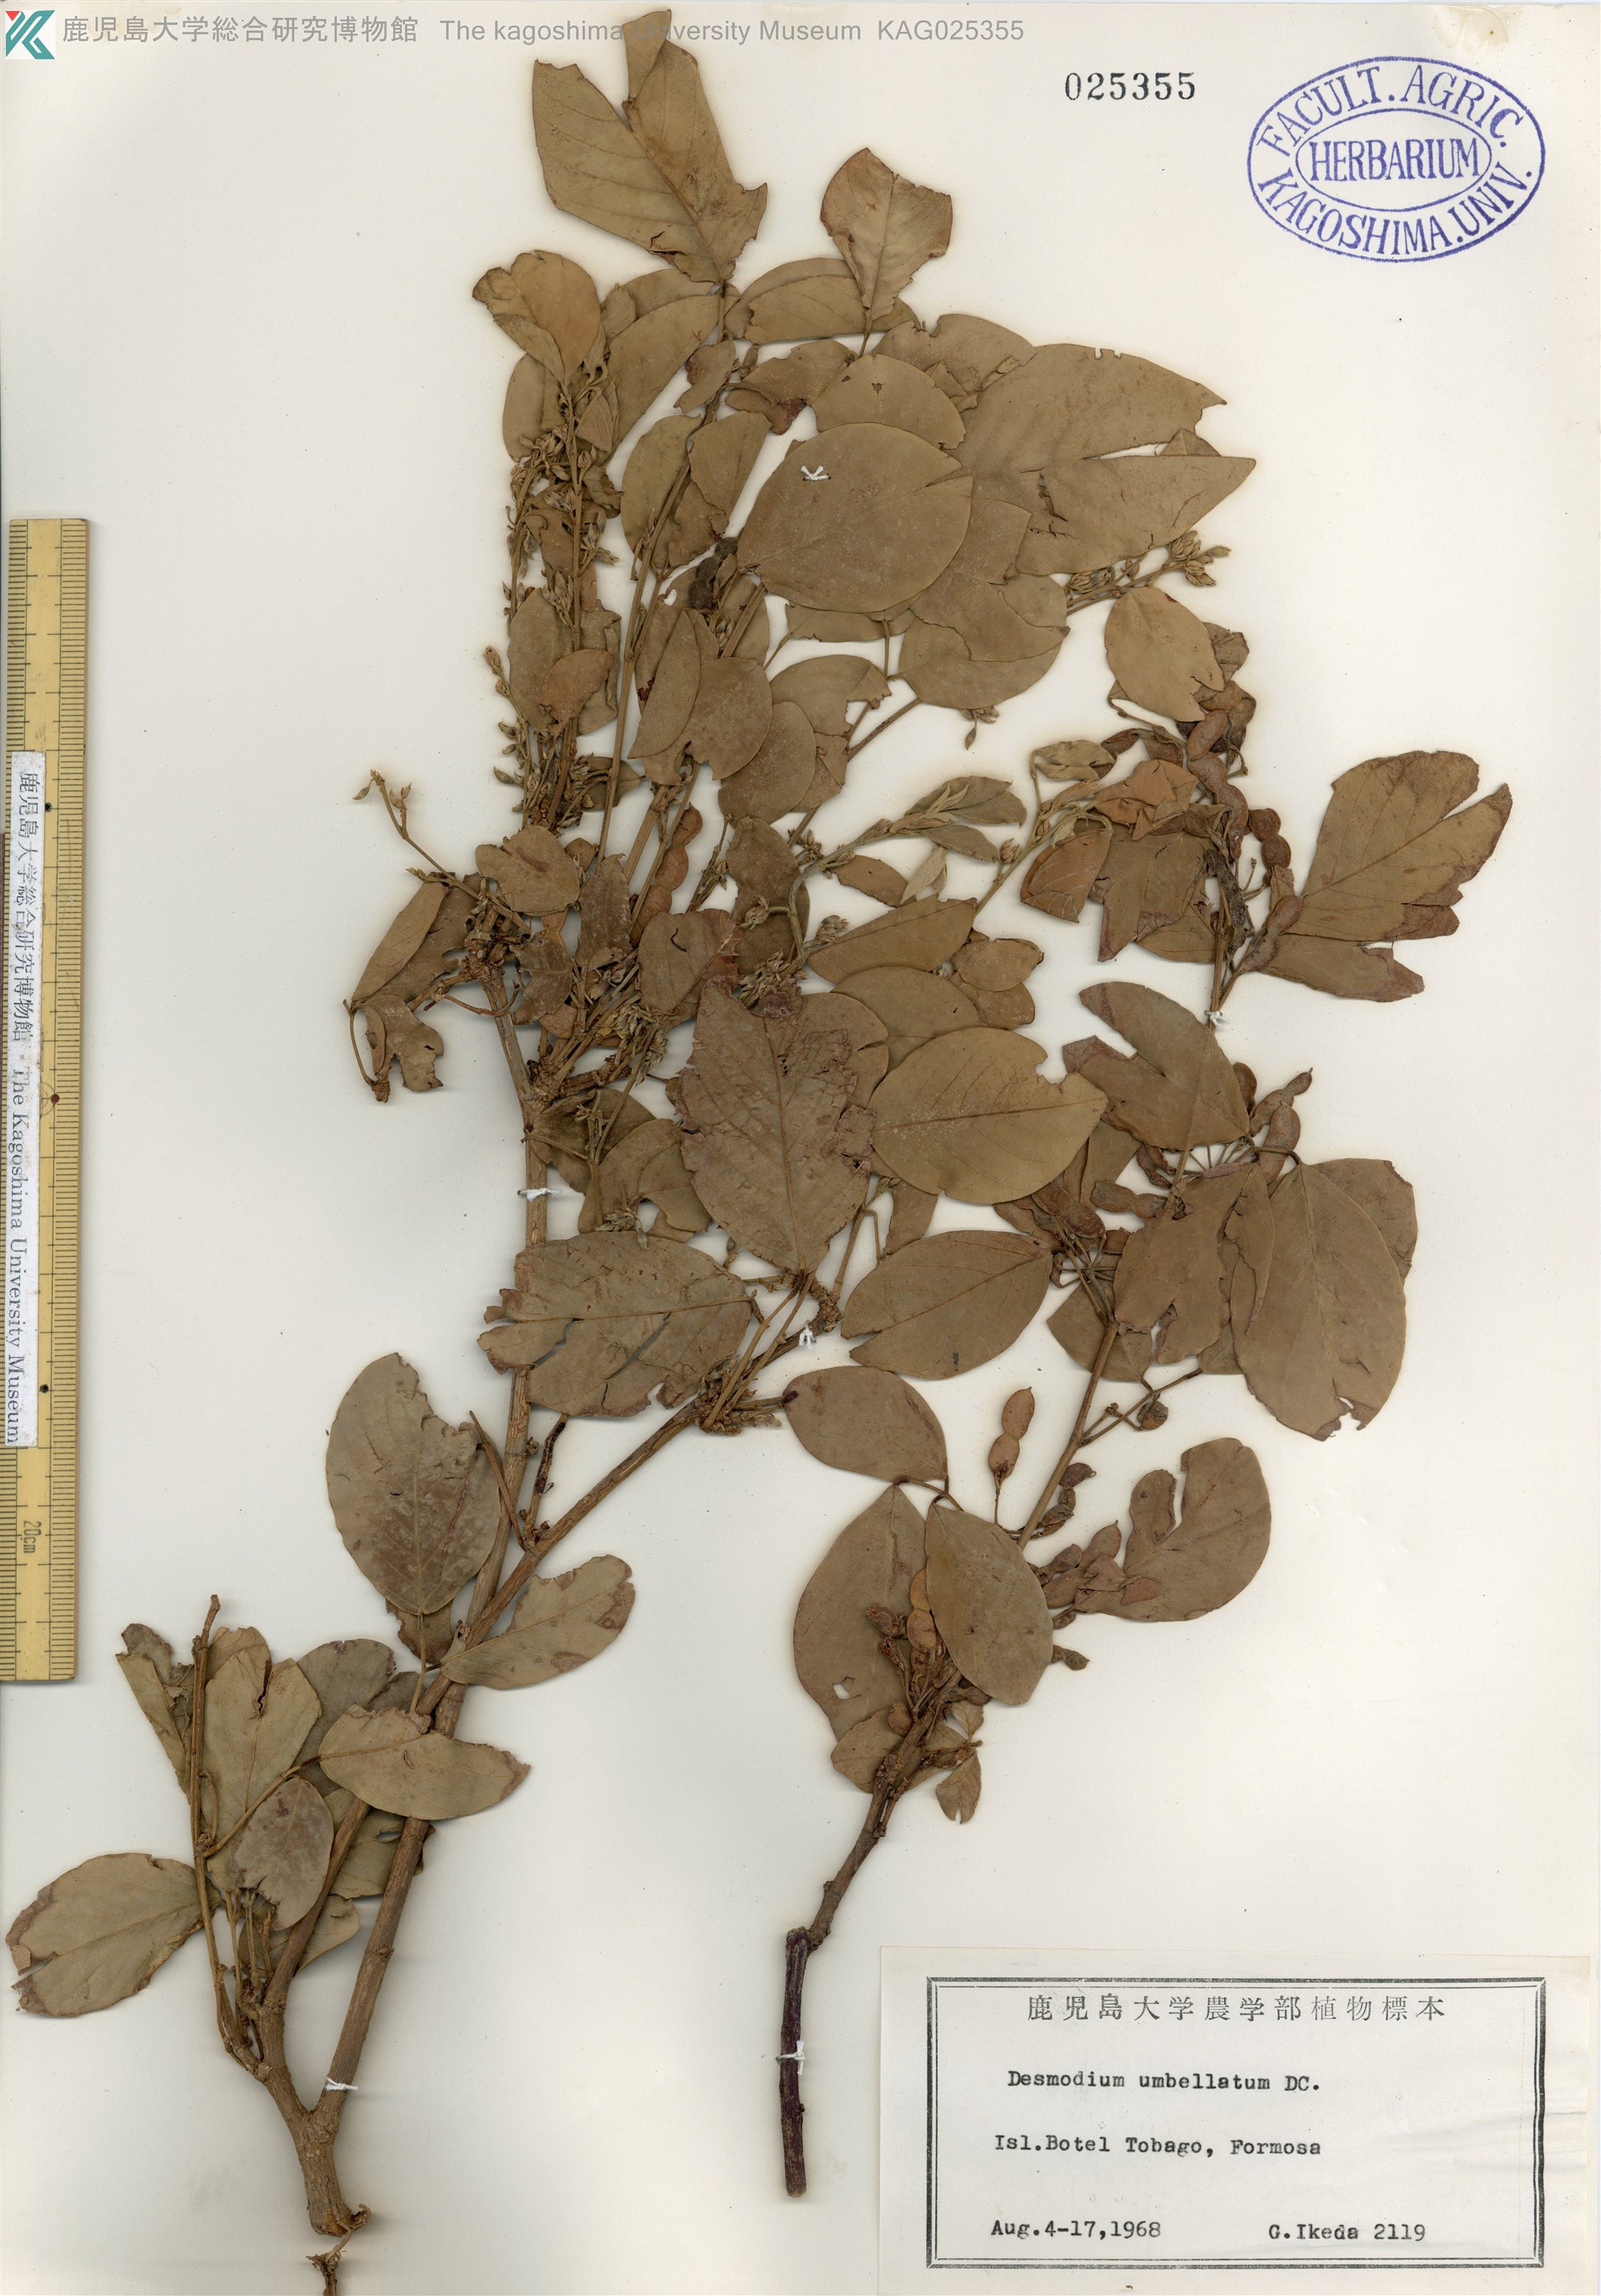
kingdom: Plantae
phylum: Tracheophyta
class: Magnoliopsida
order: Fabales
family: Fabaceae
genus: Desmodium
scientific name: Desmodium umbellatum
